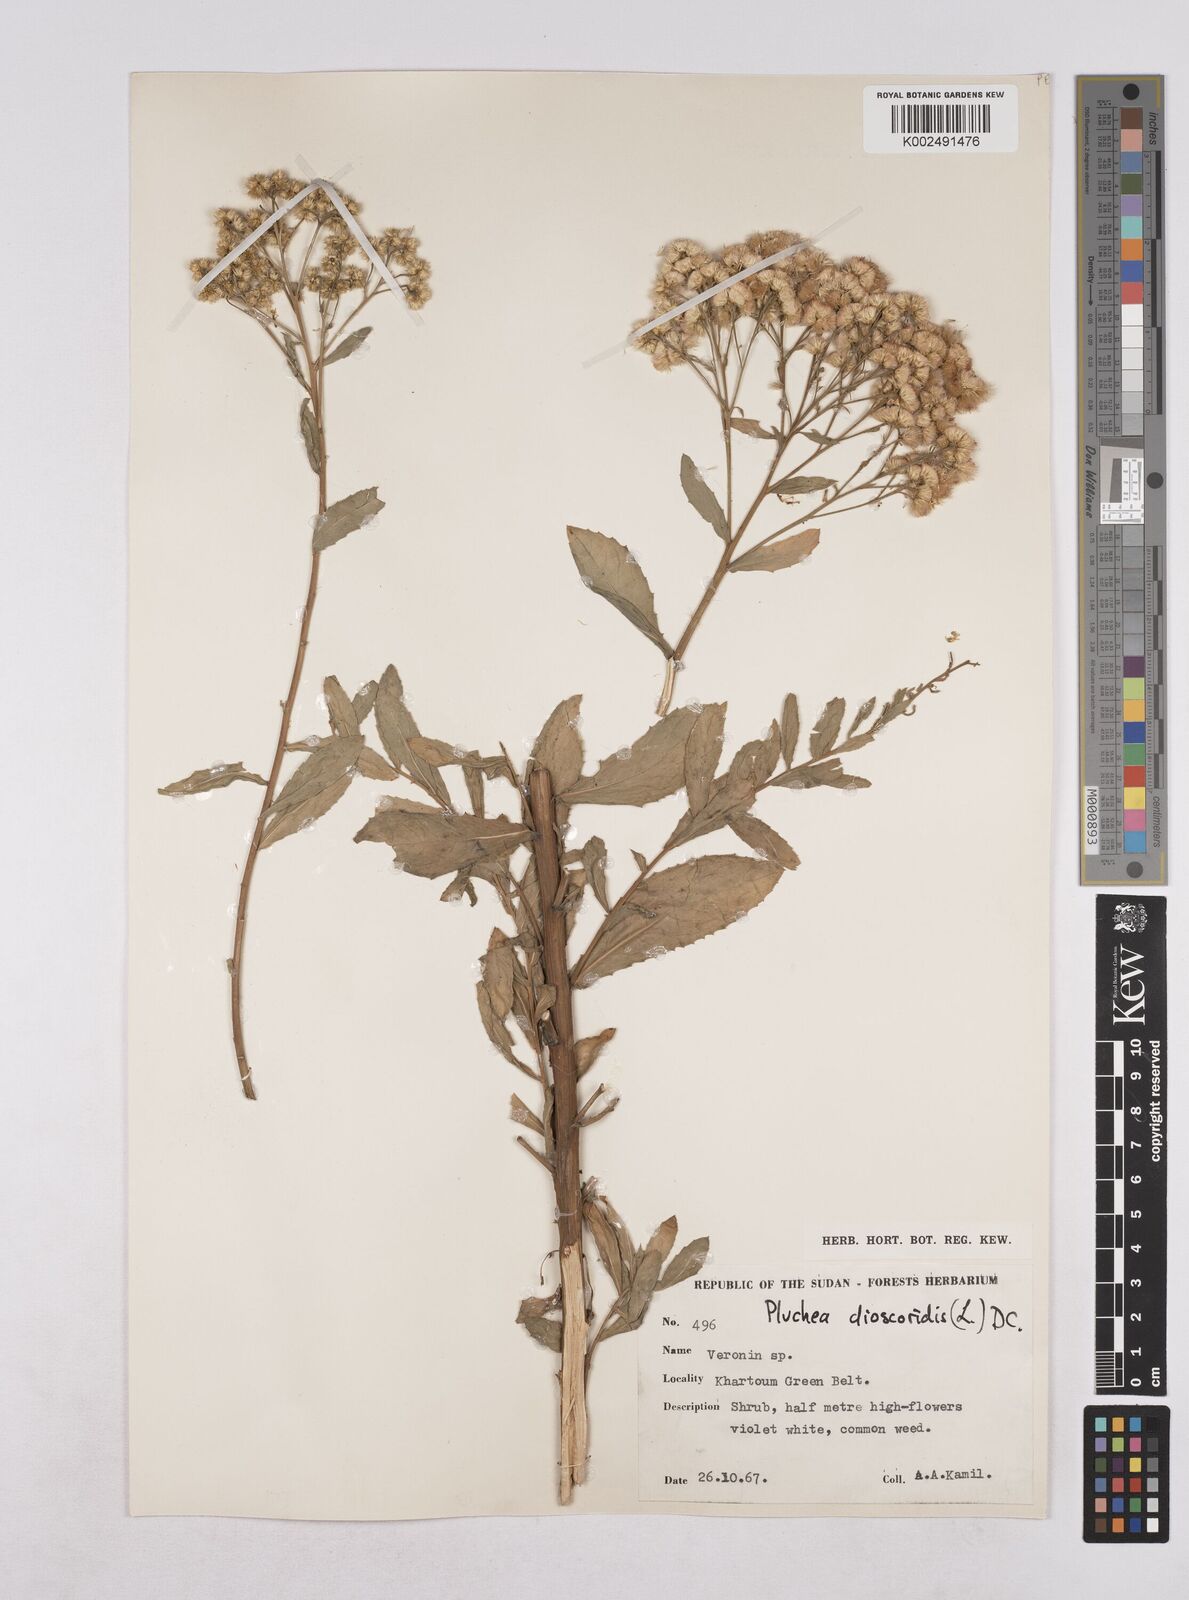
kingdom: Plantae
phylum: Tracheophyta
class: Magnoliopsida
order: Asterales
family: Asteraceae
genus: Pluchea
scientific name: Pluchea dioscoridis
